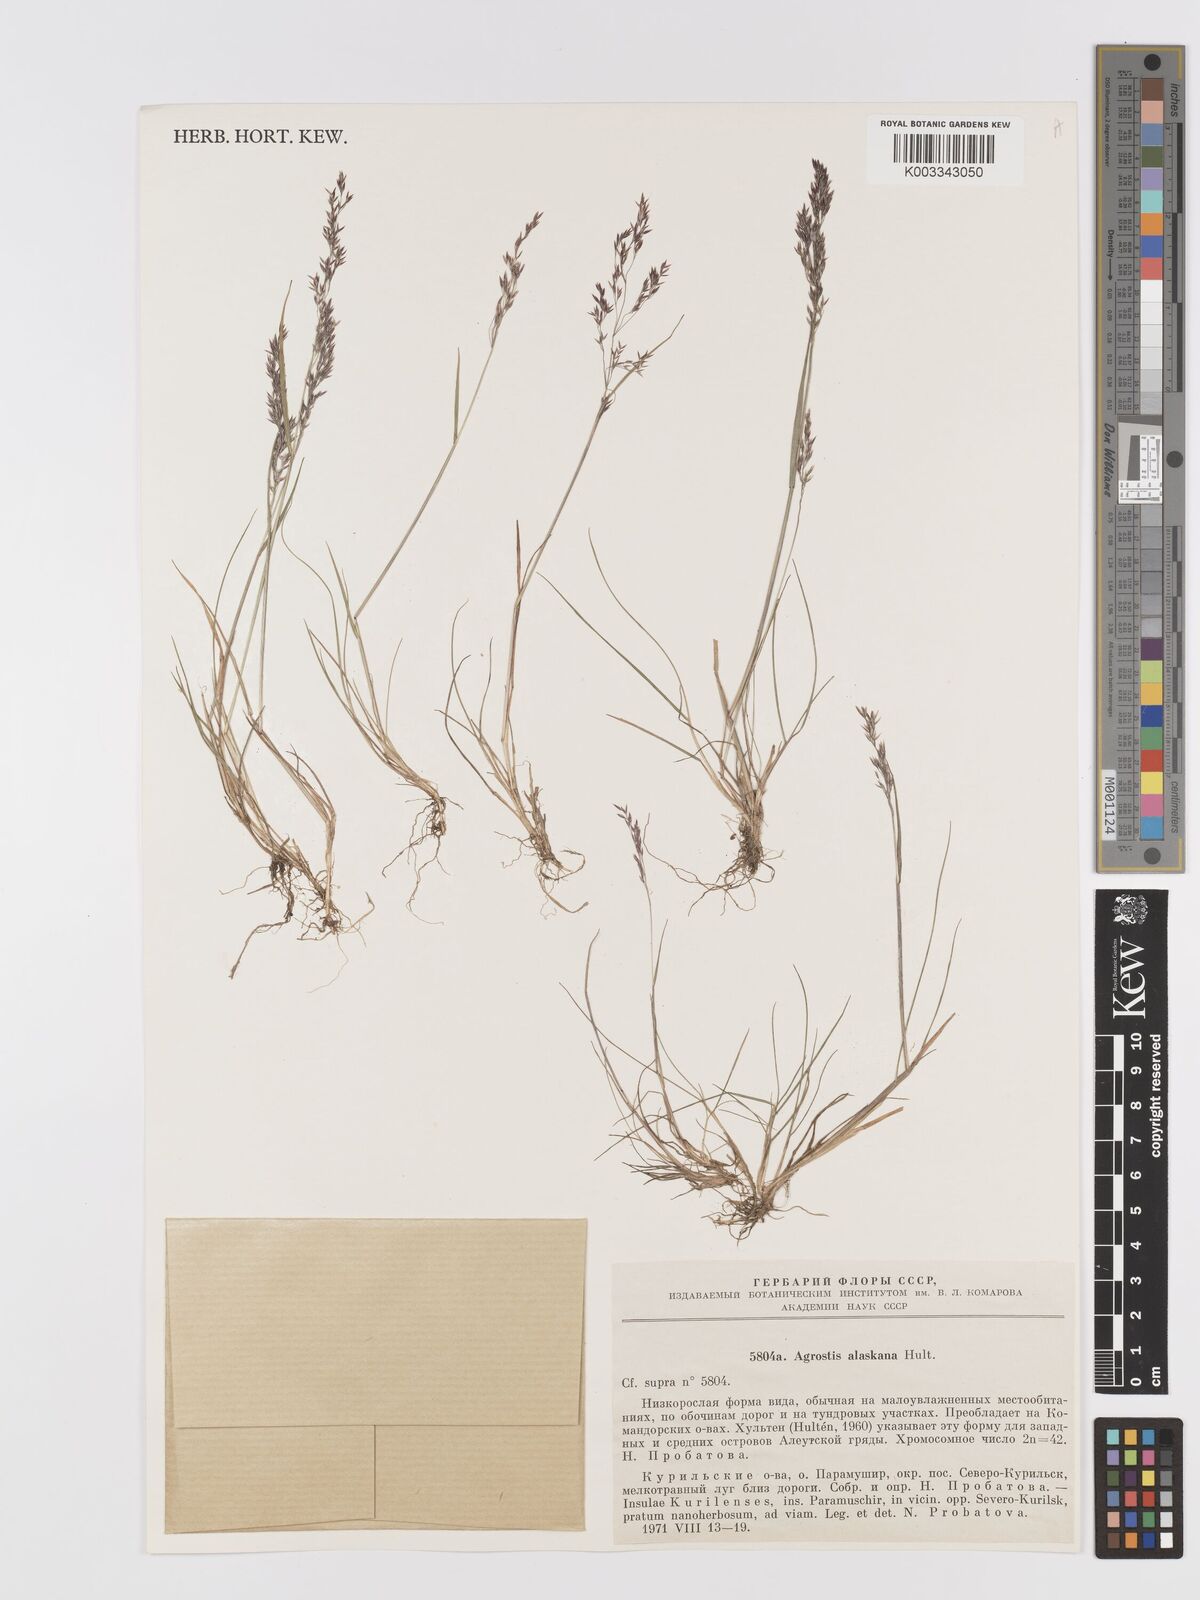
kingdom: Plantae
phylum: Tracheophyta
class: Liliopsida
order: Poales
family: Poaceae
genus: Agrostis
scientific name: Agrostis scabra
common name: Rough bent
